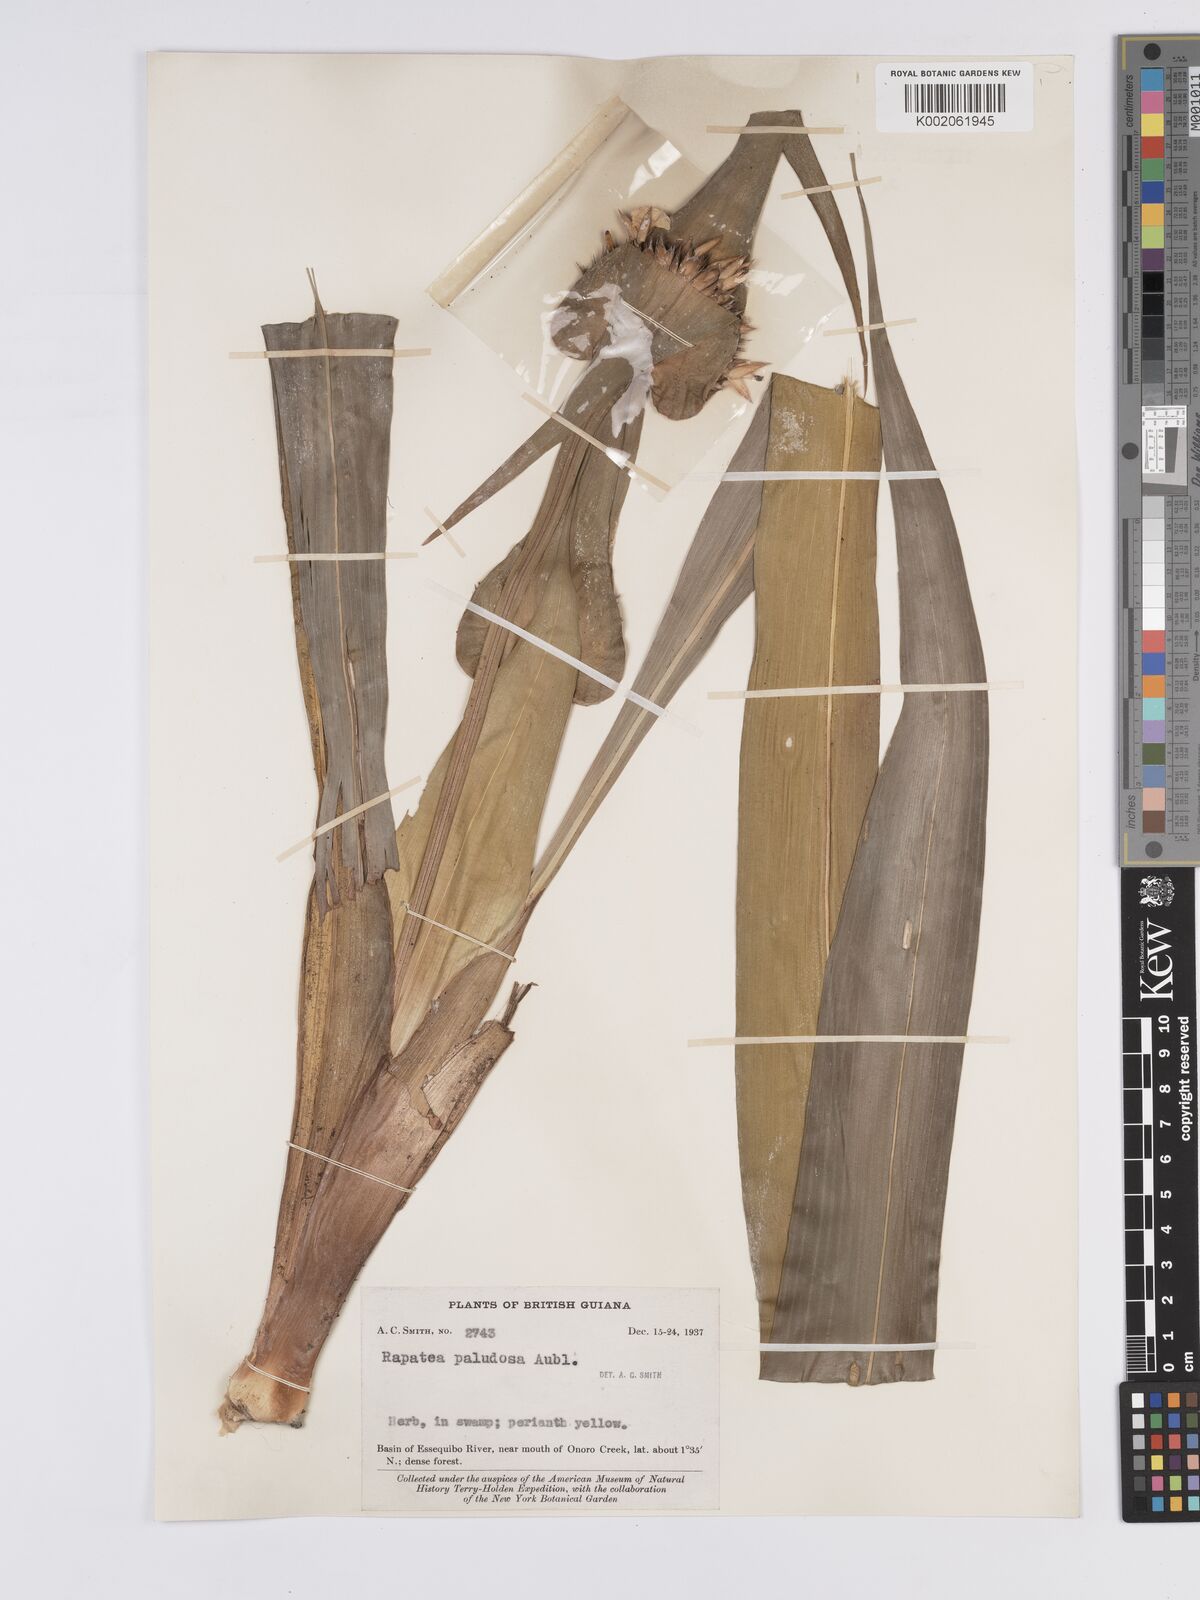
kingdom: Plantae
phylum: Tracheophyta
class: Liliopsida
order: Poales
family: Rapateaceae
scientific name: Rapateaceae
